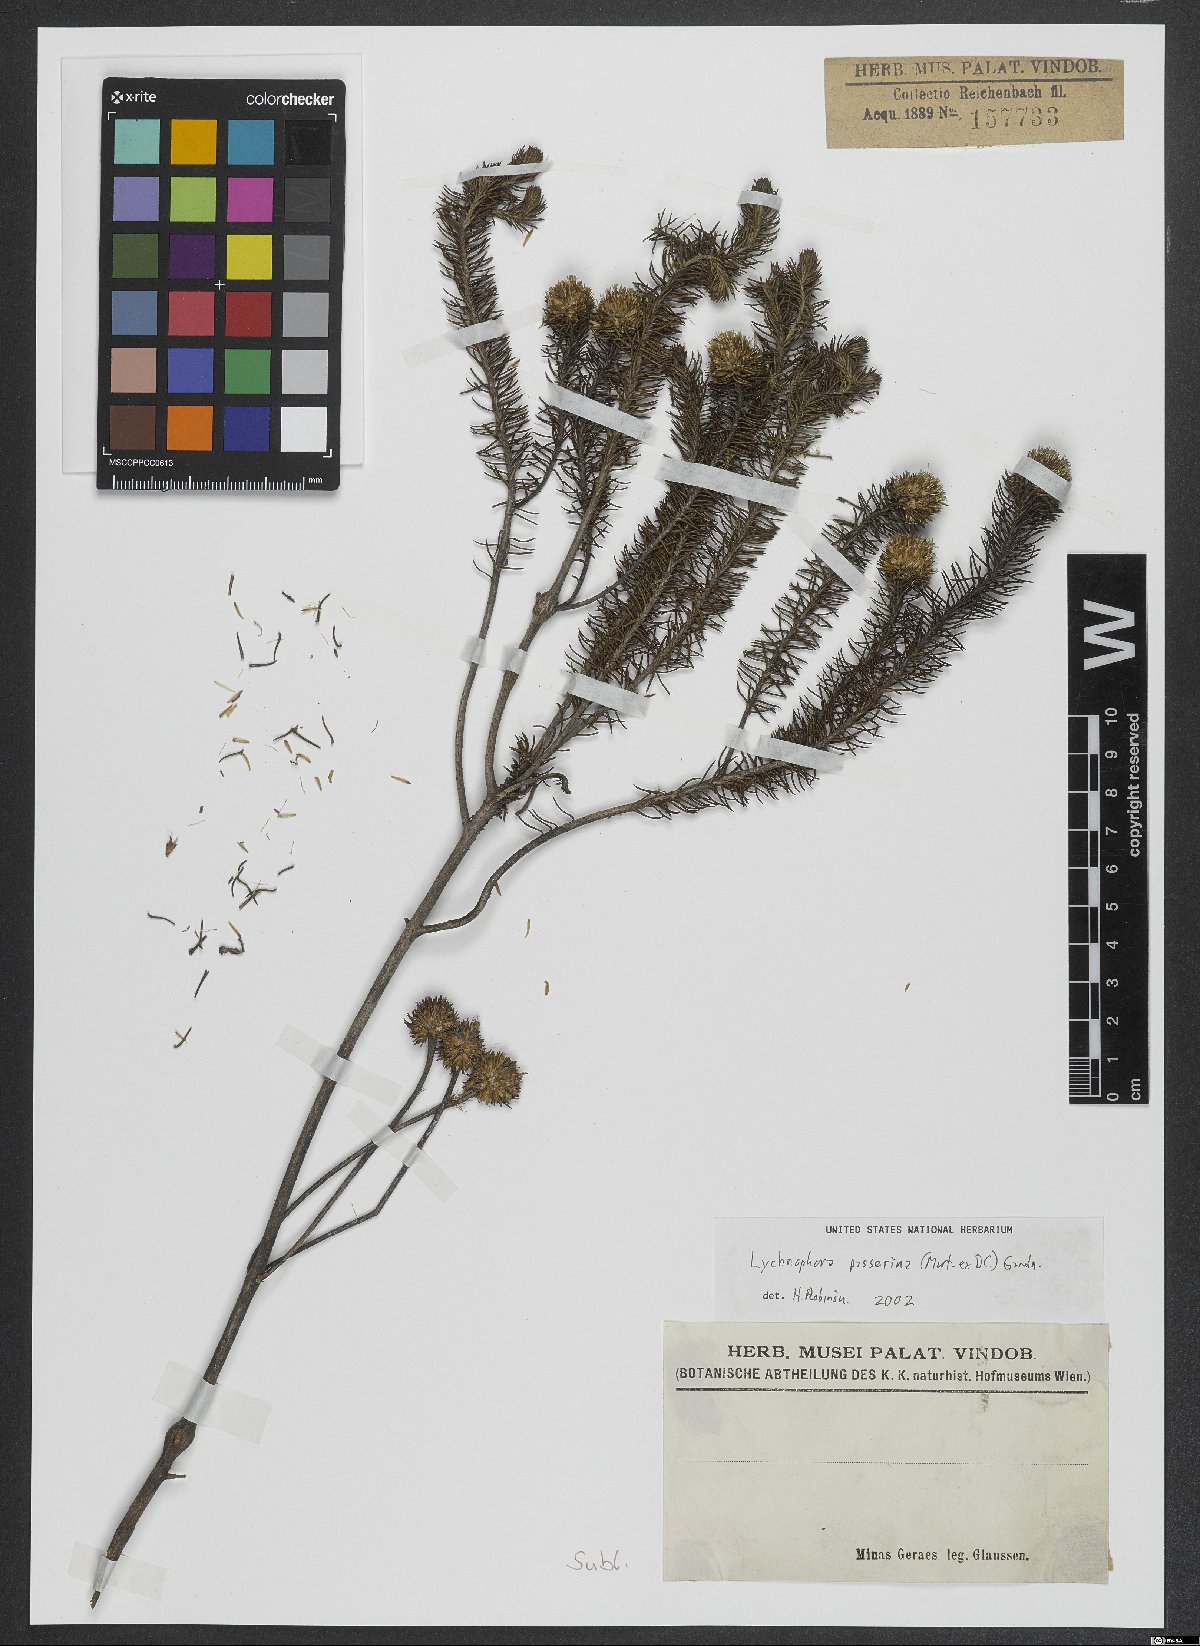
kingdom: Plantae
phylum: Tracheophyta
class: Magnoliopsida
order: Asterales
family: Asteraceae
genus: Lychnophora
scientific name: Lychnophora passerina
